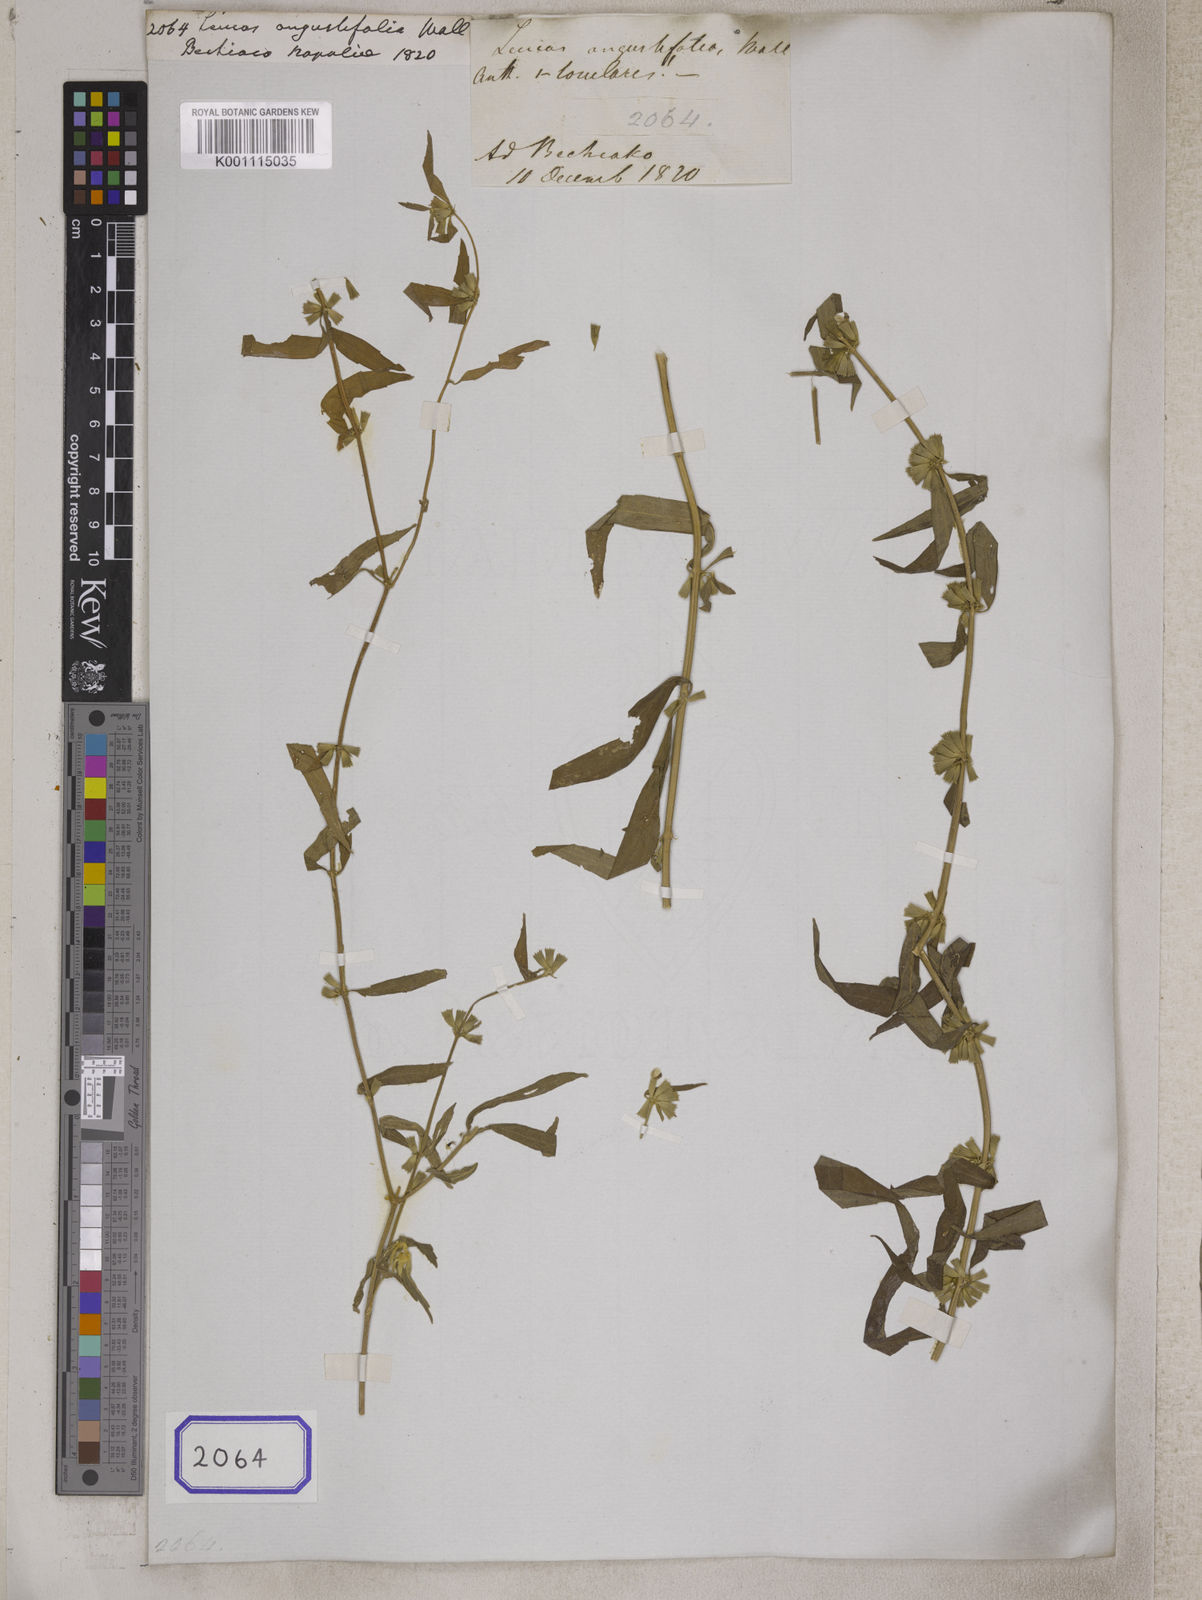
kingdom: Plantae
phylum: Tracheophyta
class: Magnoliopsida
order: Lamiales
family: Lamiaceae
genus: Leucas
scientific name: Leucas
